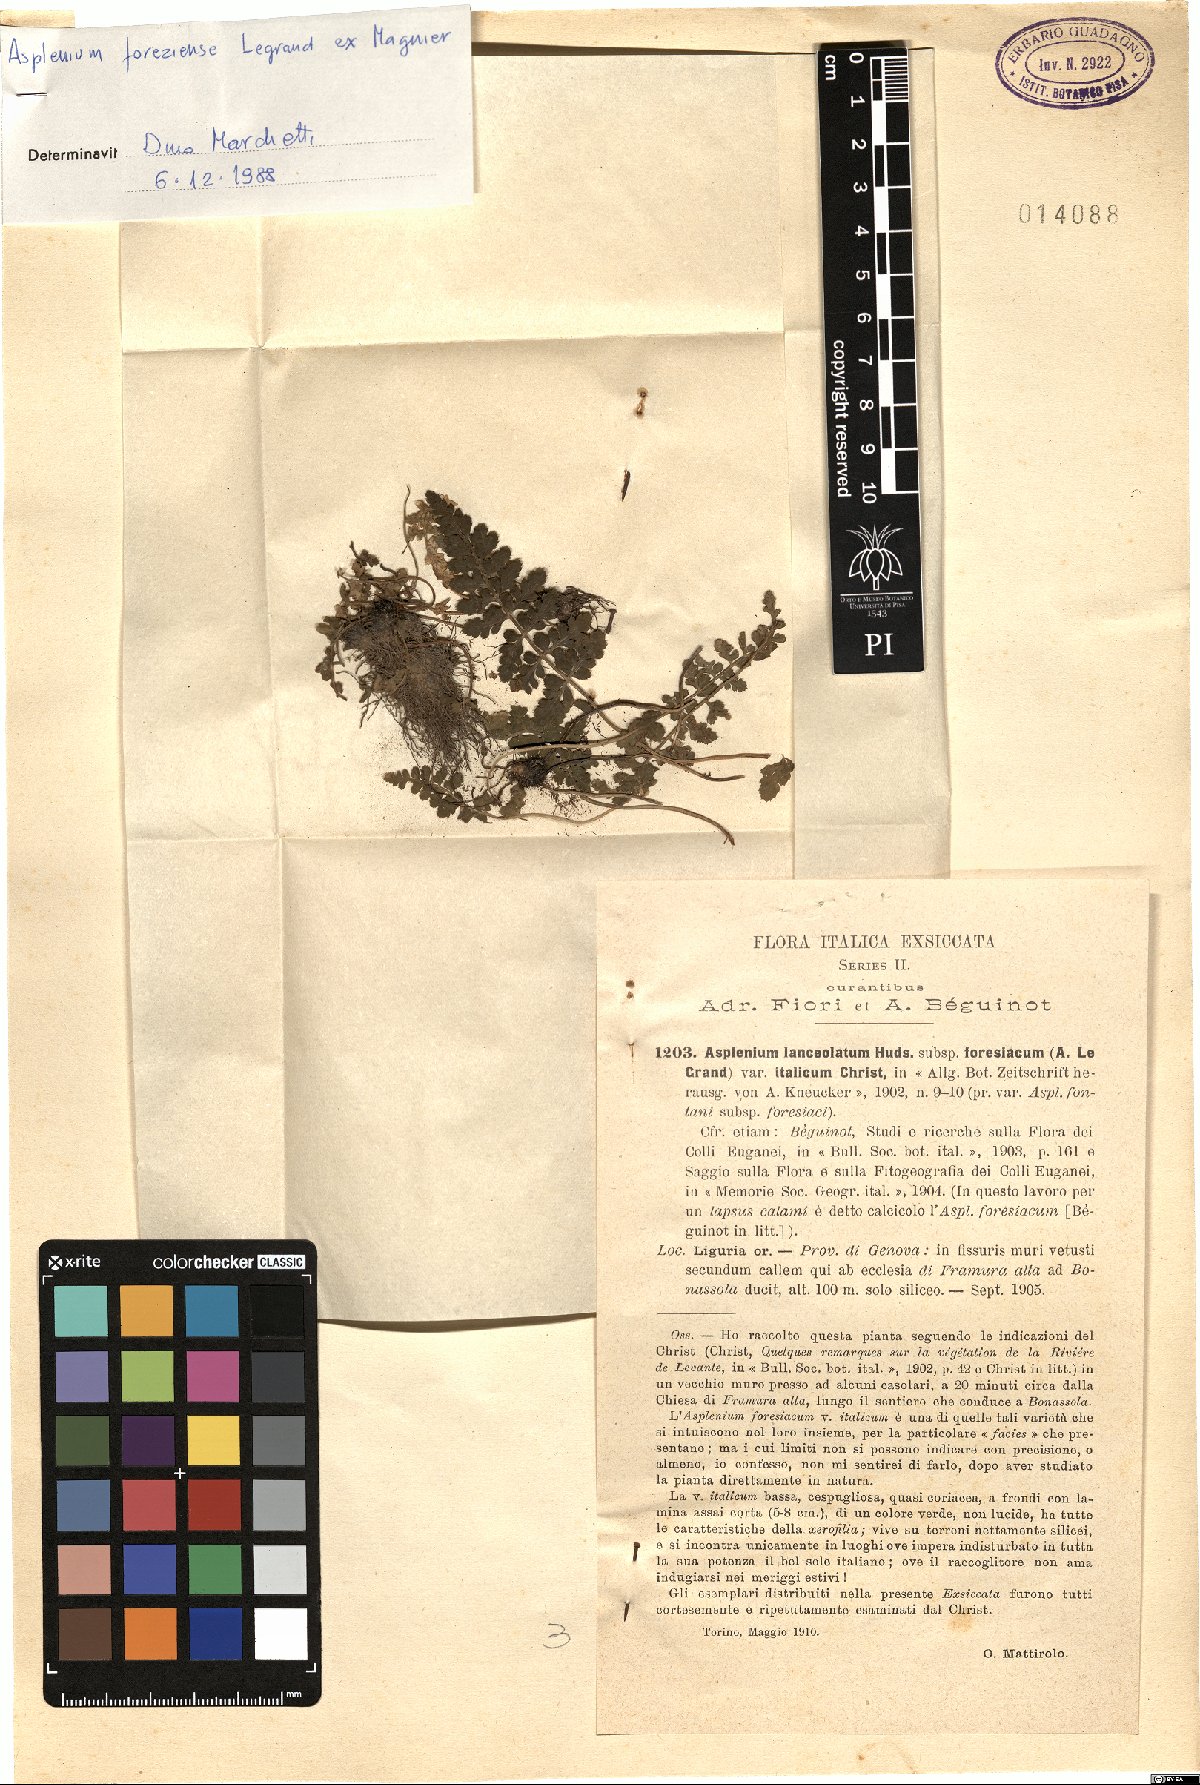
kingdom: Plantae
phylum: Tracheophyta
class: Polypodiopsida
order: Polypodiales
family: Aspleniaceae
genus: Asplenium
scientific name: Asplenium foreziense
